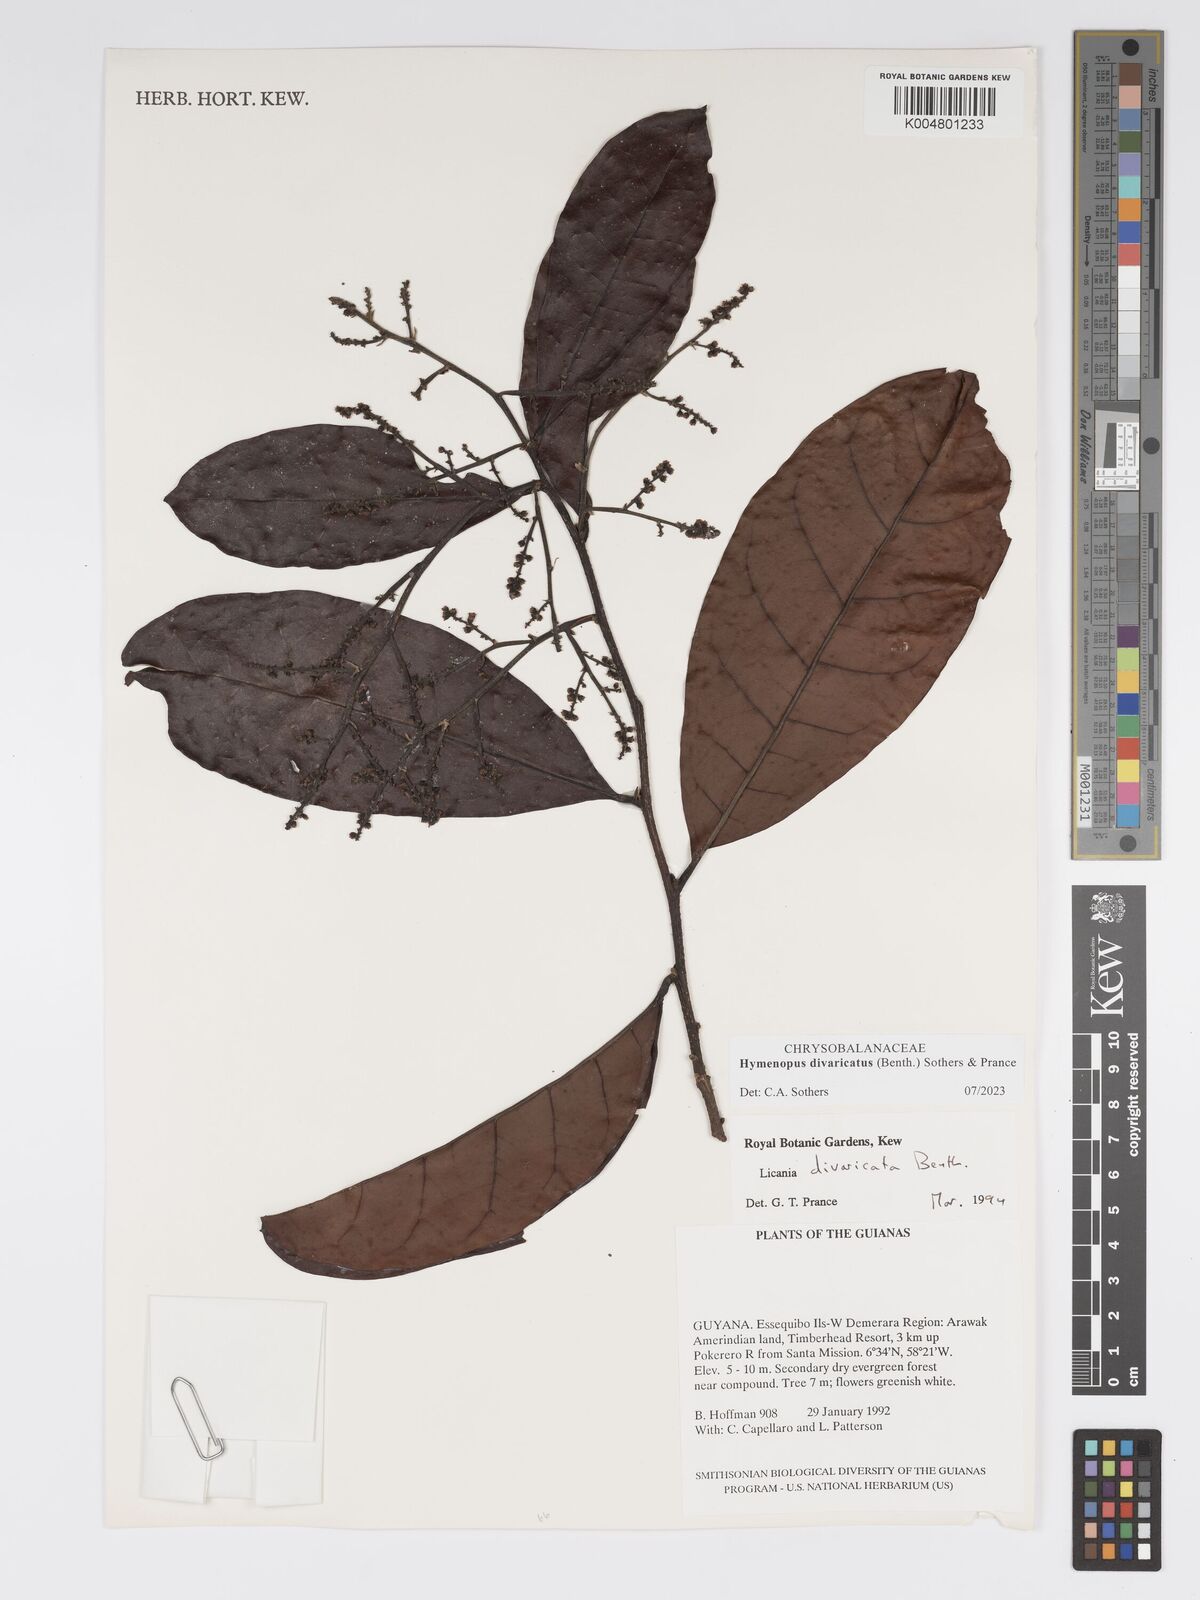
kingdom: Plantae
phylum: Tracheophyta
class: Magnoliopsida
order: Malpighiales
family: Chrysobalanaceae
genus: Hymenopus
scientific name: Hymenopus divaricatus
